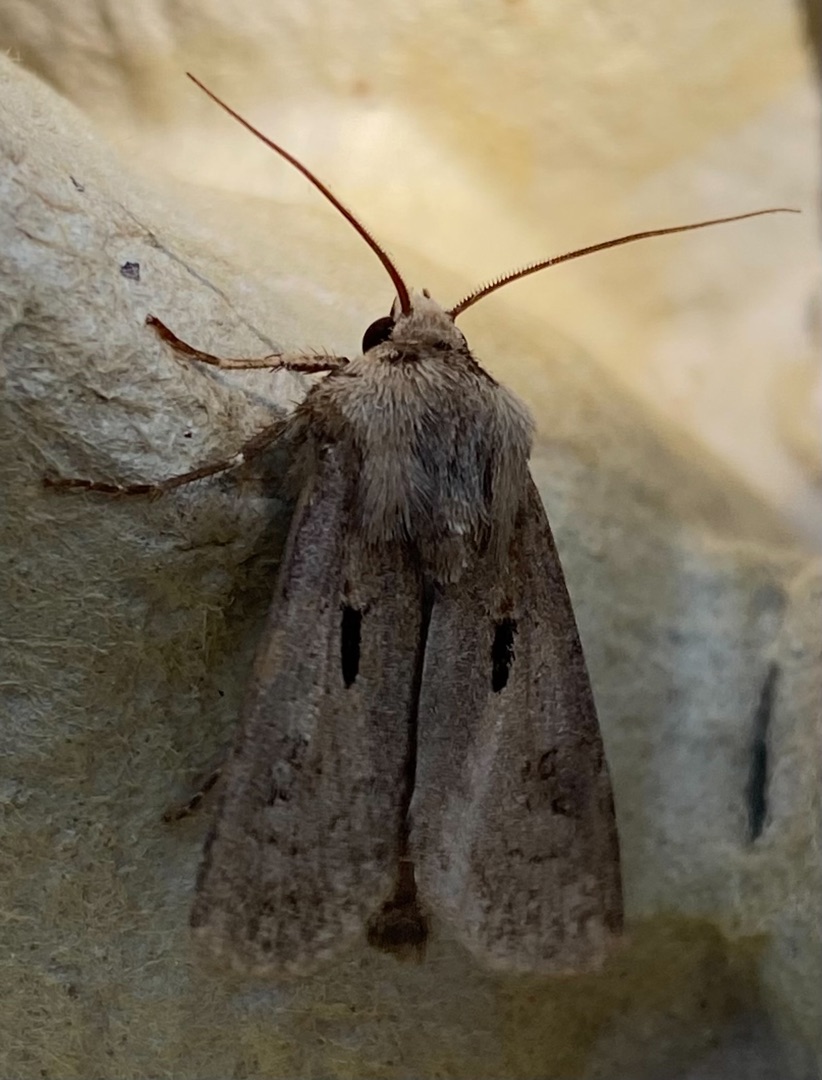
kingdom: Animalia
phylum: Arthropoda
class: Insecta
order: Lepidoptera
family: Noctuidae
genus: Agrotis
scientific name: Agrotis exclamationis
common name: Udråbstegnsugle
